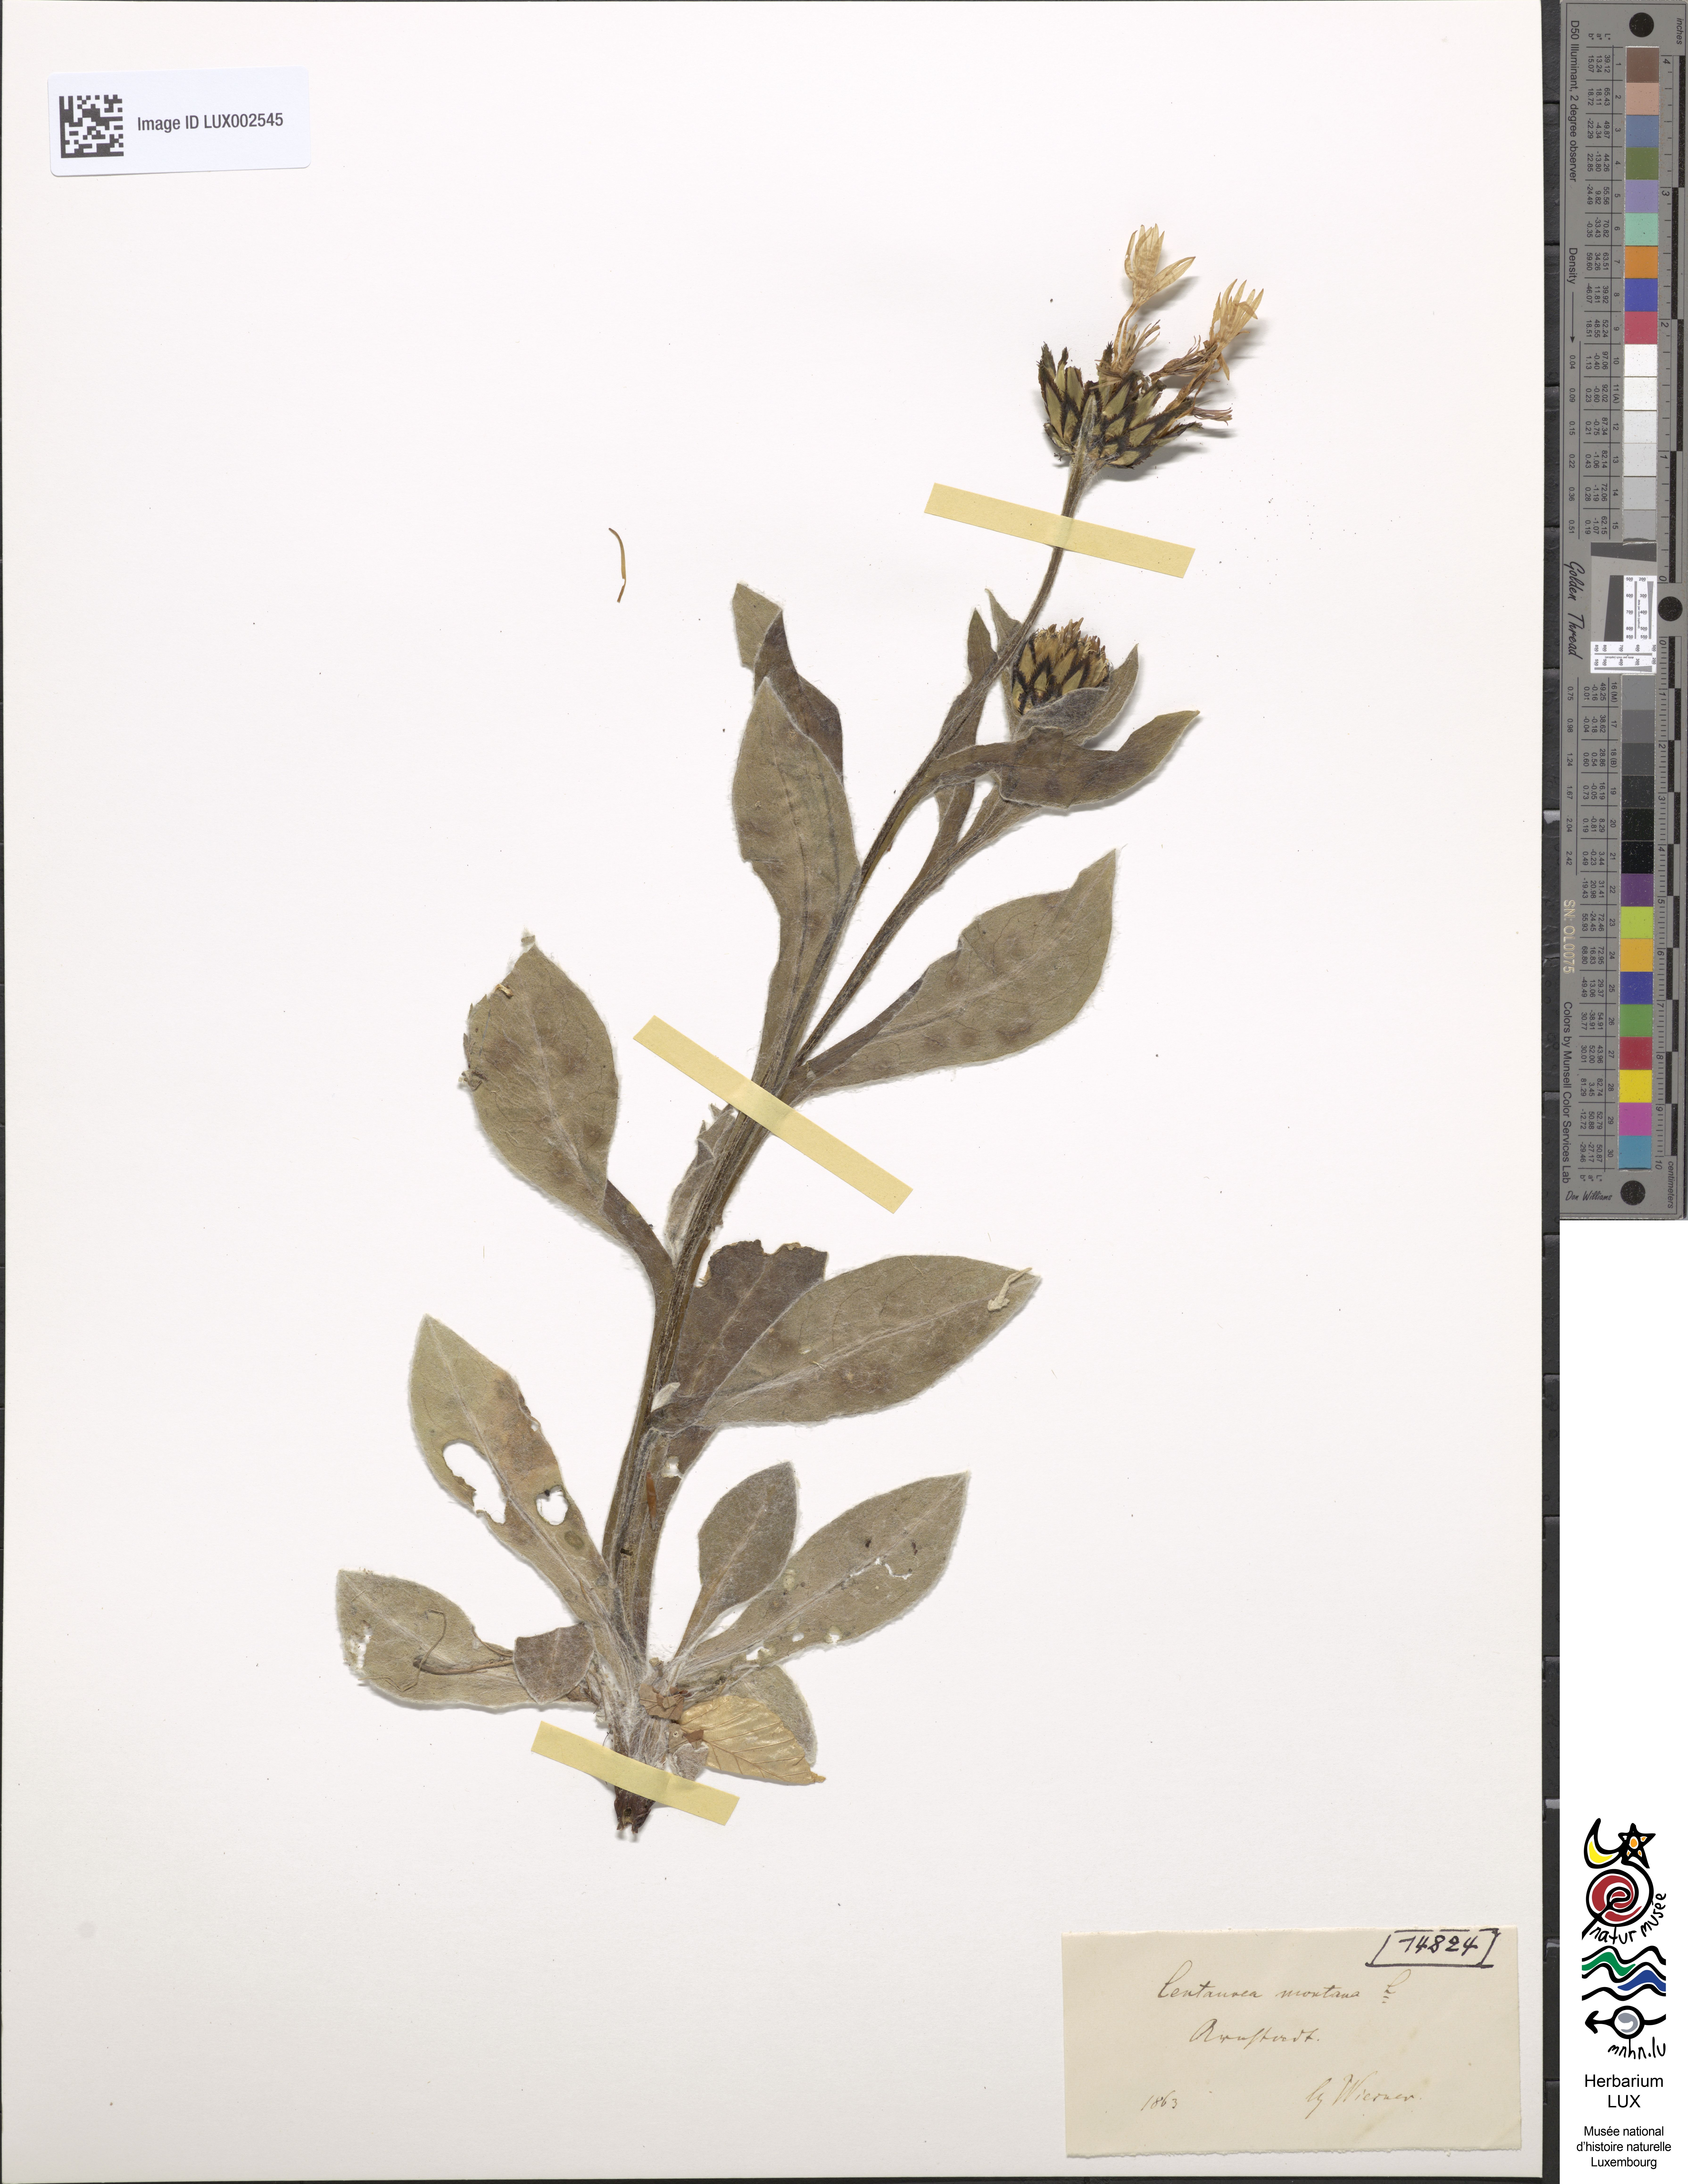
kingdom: Plantae
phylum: Tracheophyta
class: Magnoliopsida
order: Asterales
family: Asteraceae
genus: Centaurea
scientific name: Centaurea montana
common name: Perennial cornflower
